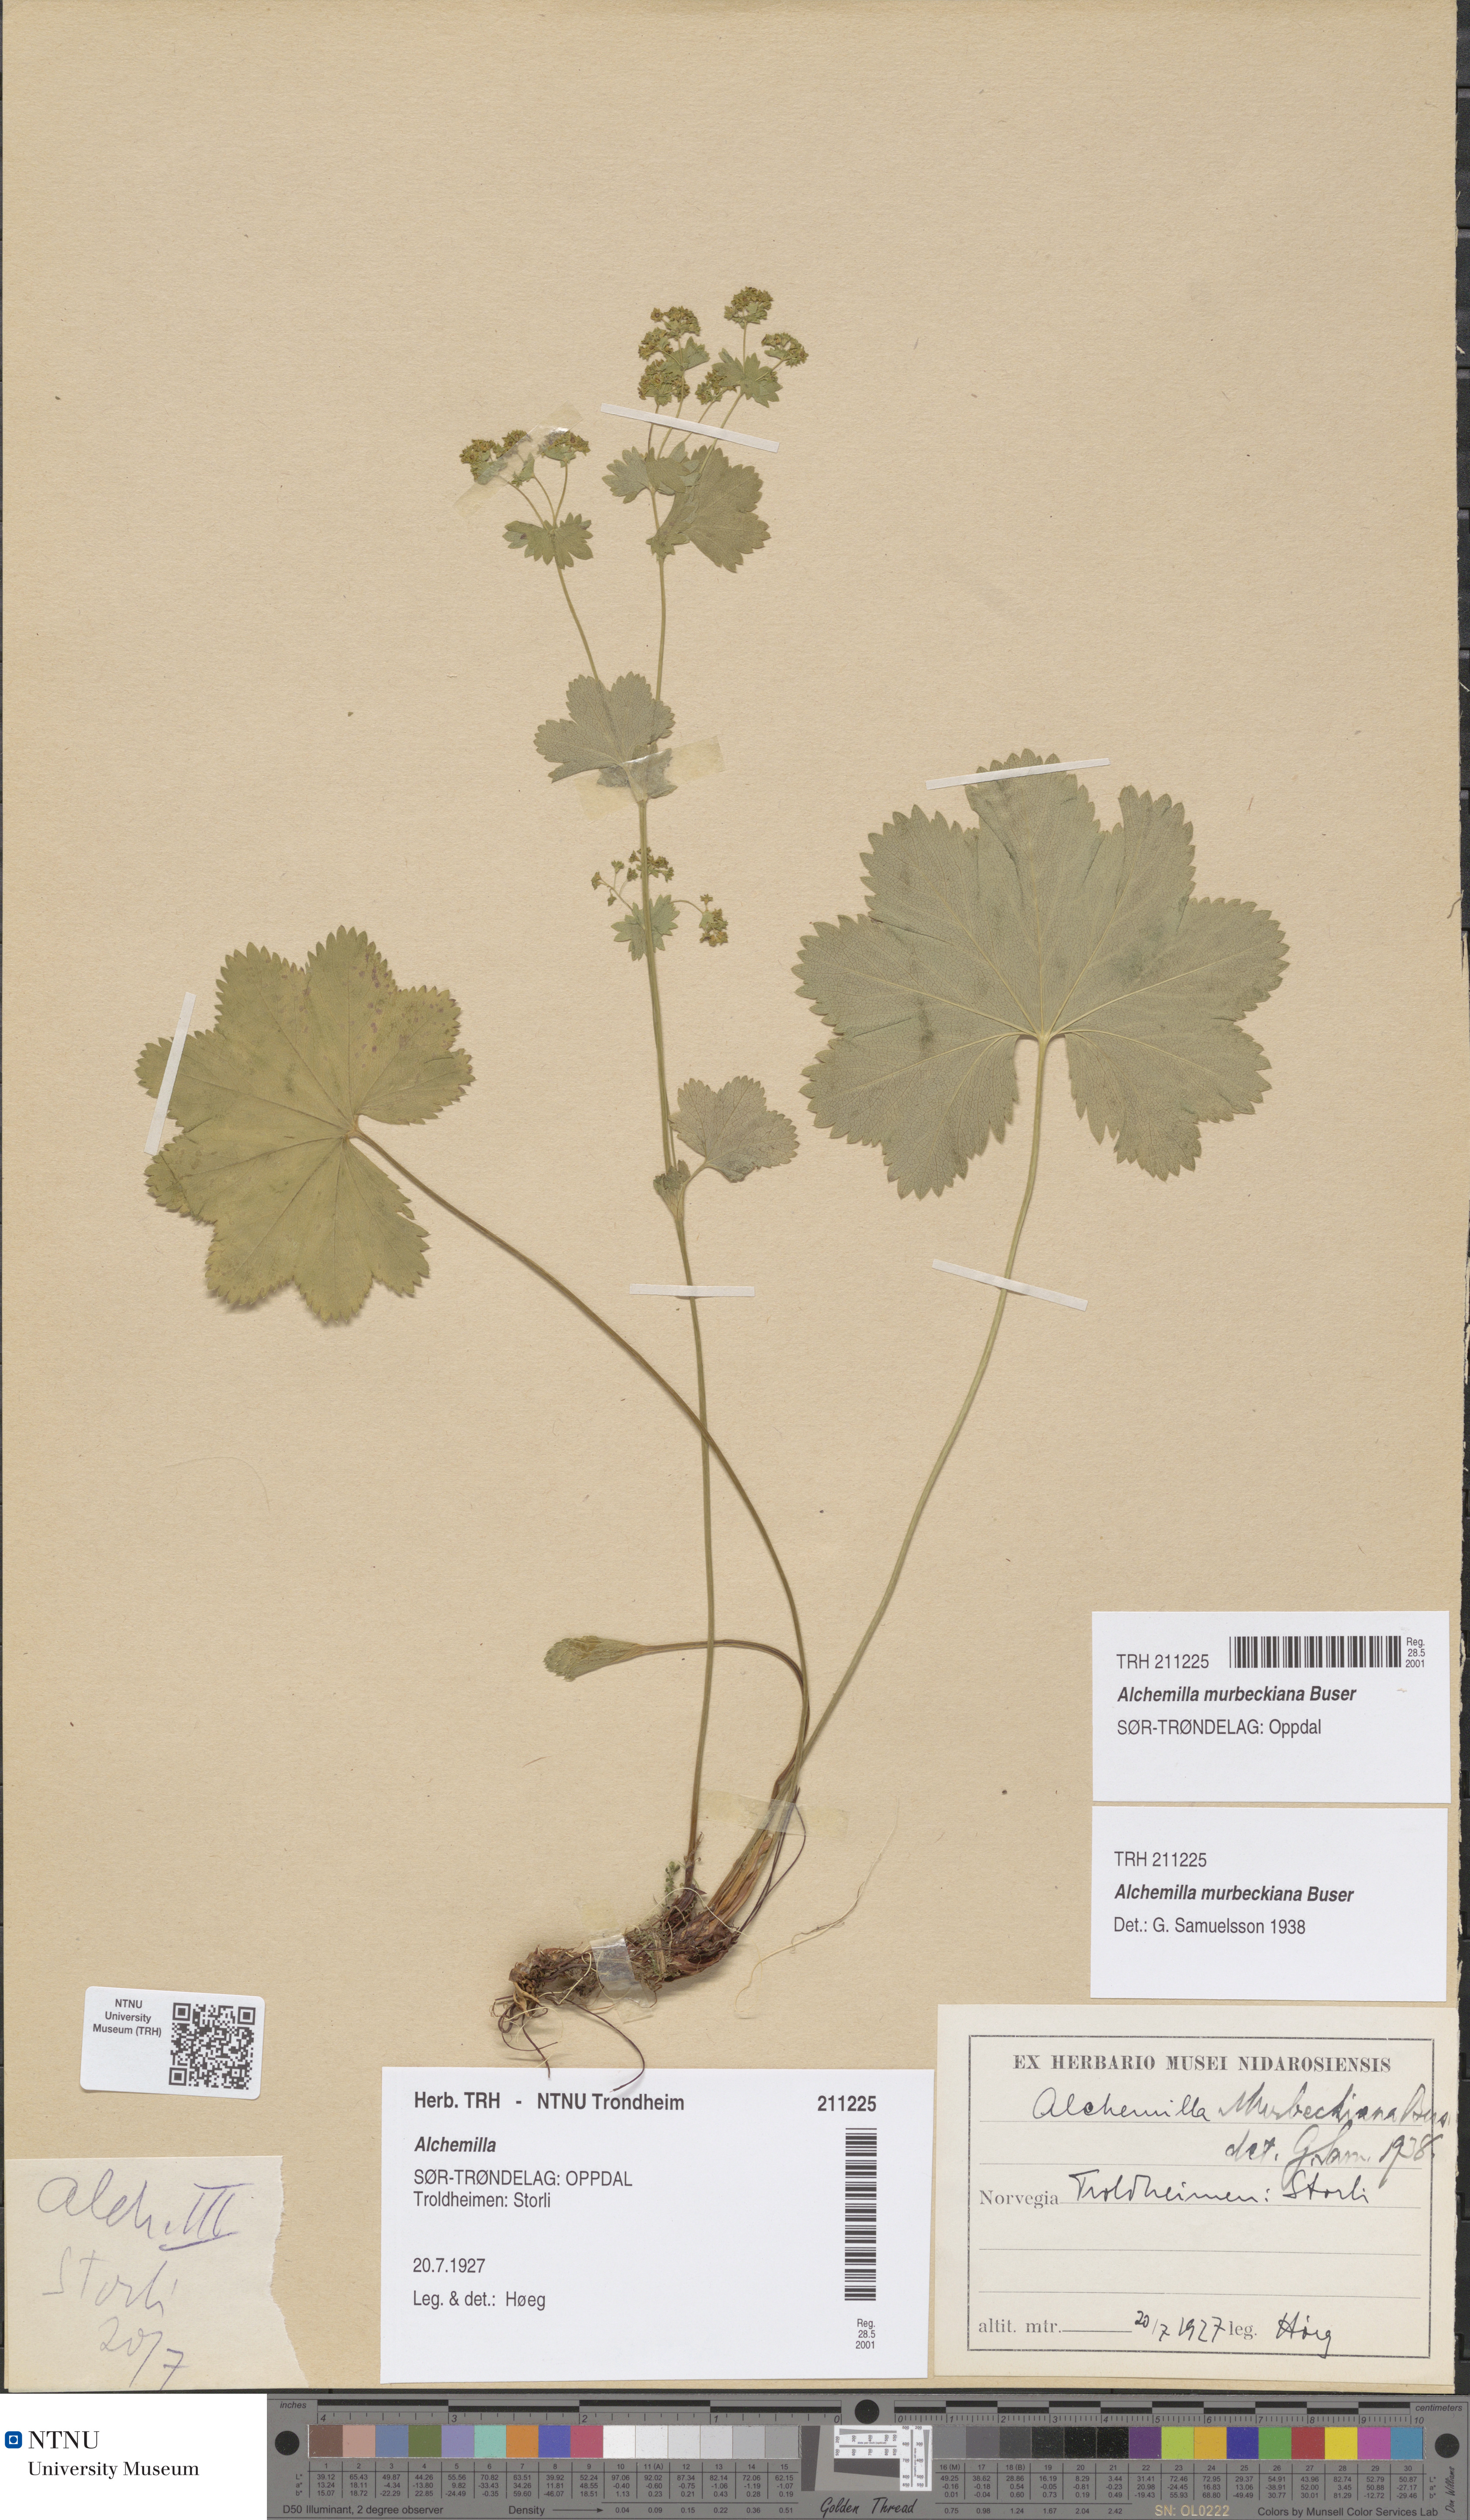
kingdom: Plantae
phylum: Tracheophyta
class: Magnoliopsida
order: Rosales
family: Rosaceae
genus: Alchemilla
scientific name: Alchemilla murbeckiana
